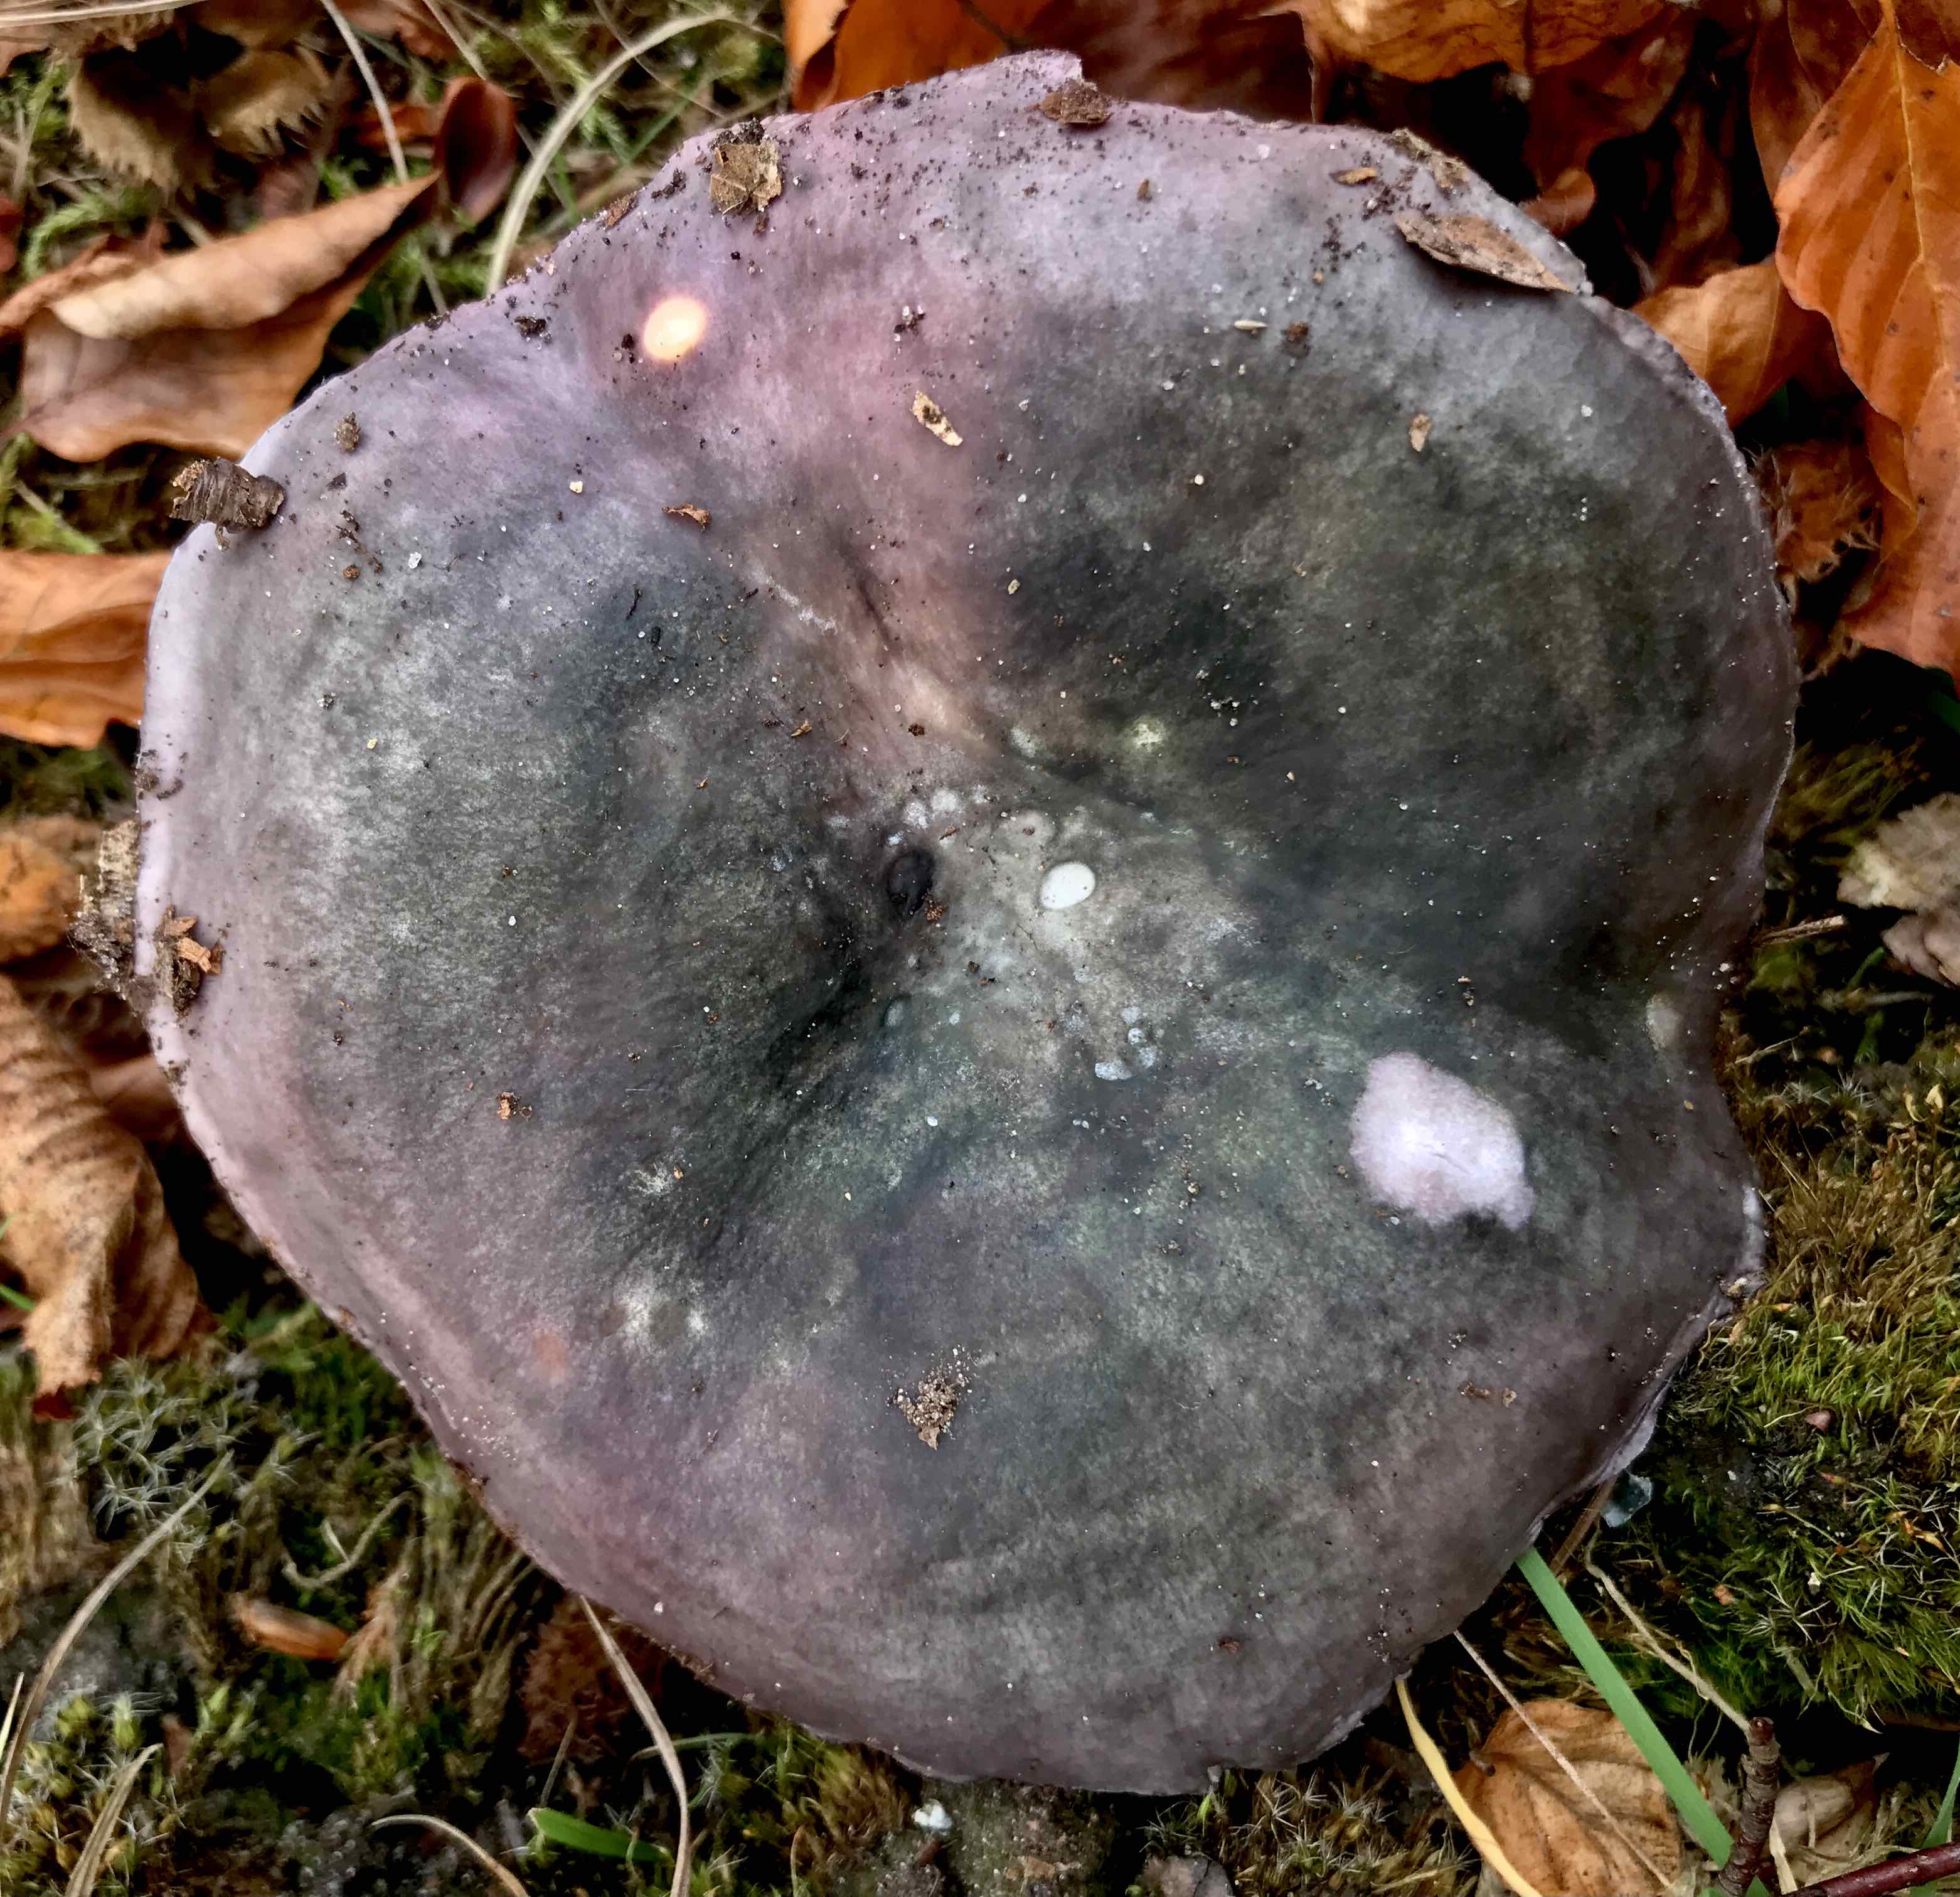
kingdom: Fungi
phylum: Basidiomycota
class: Agaricomycetes
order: Russulales
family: Russulaceae
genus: Russula
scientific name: Russula cyanoxantha
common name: broget skørhat
